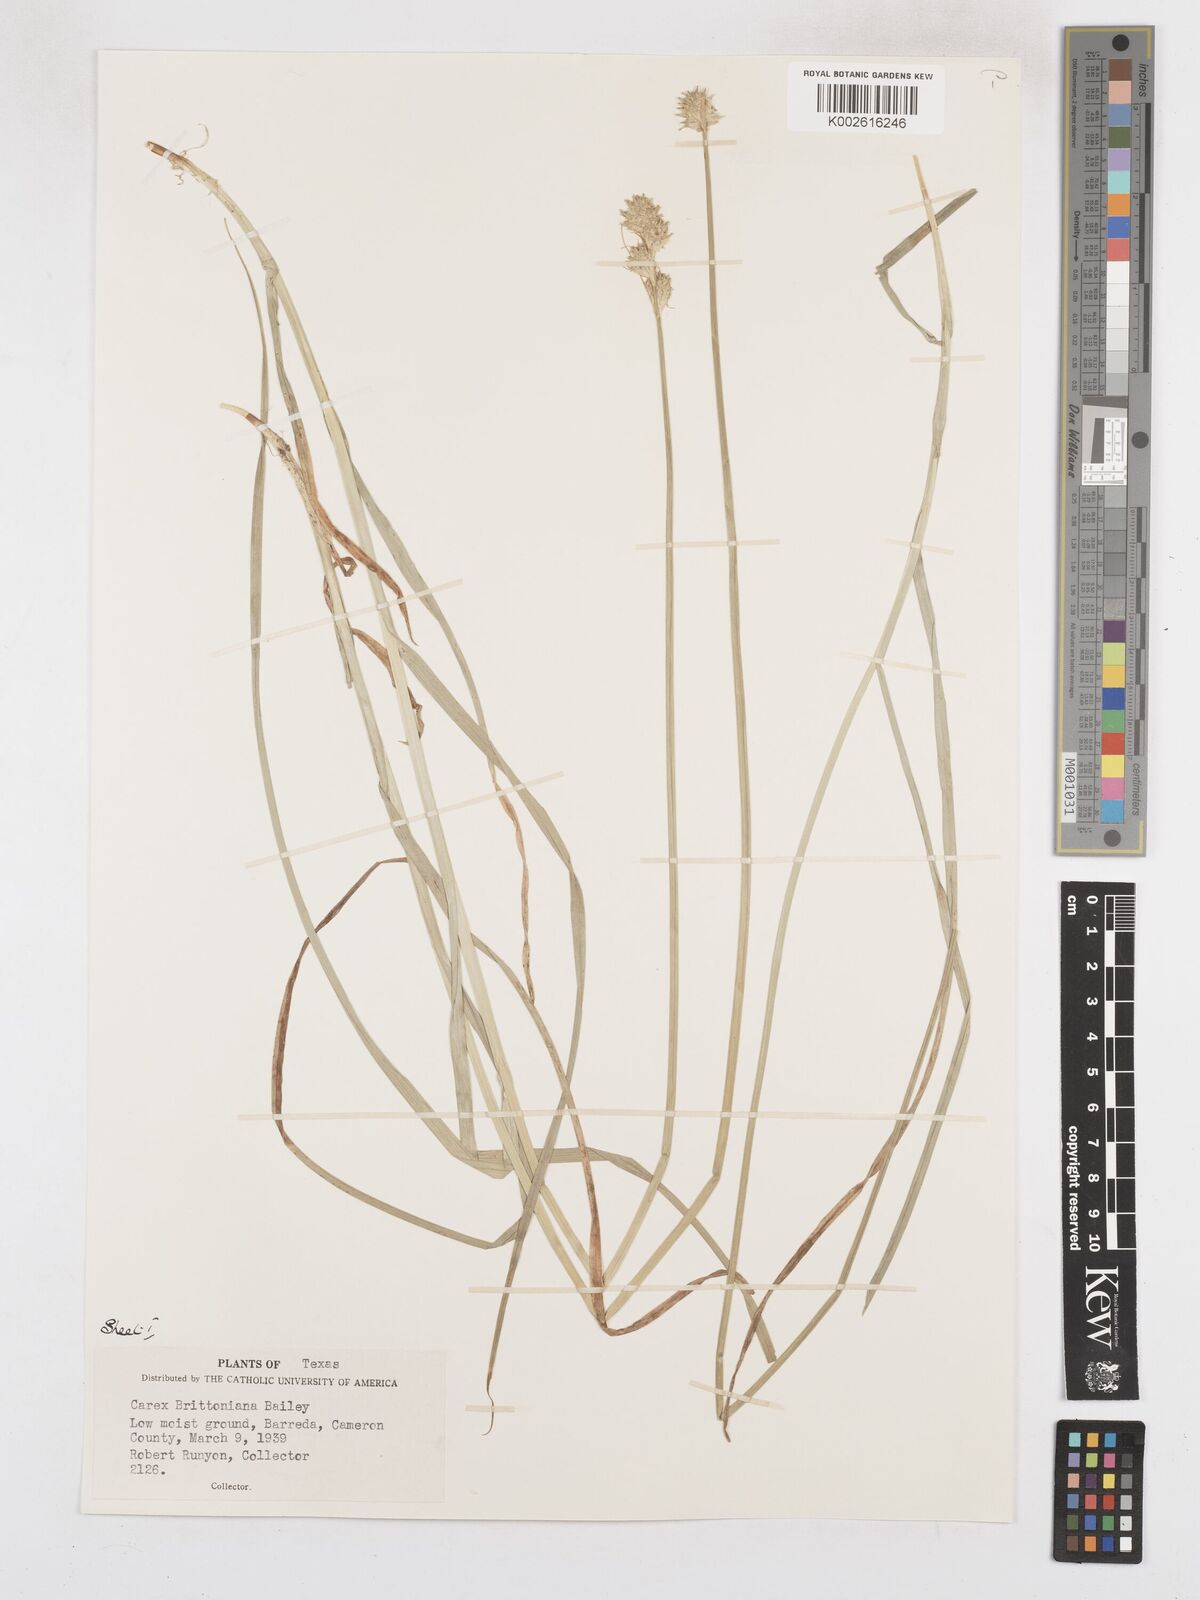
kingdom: Plantae
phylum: Tracheophyta
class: Liliopsida
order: Poales
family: Cyperaceae
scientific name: Cyperaceae
